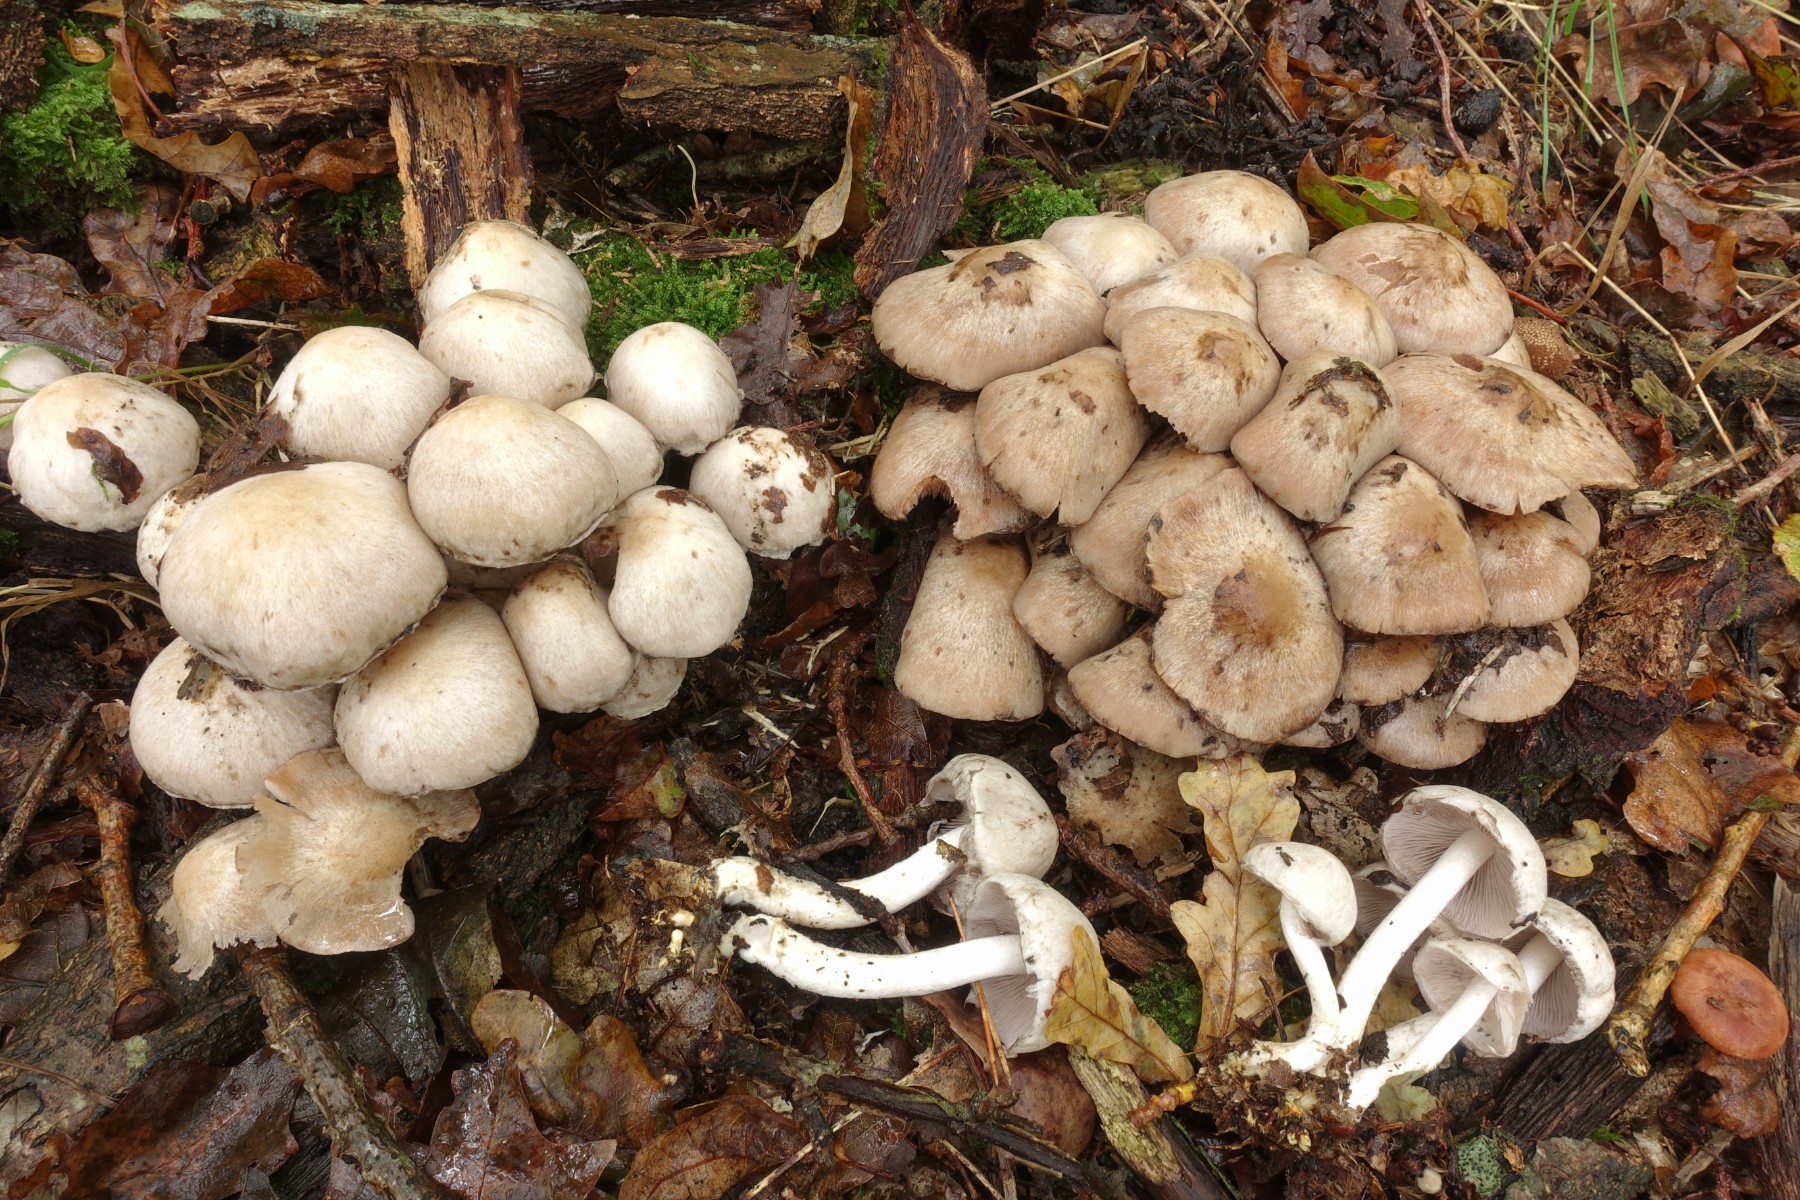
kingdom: Fungi
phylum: Basidiomycota
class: Agaricomycetes
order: Agaricales
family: Psathyrellaceae
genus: Psathyrella
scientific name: Psathyrella cotonea
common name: skællet mørkhat
